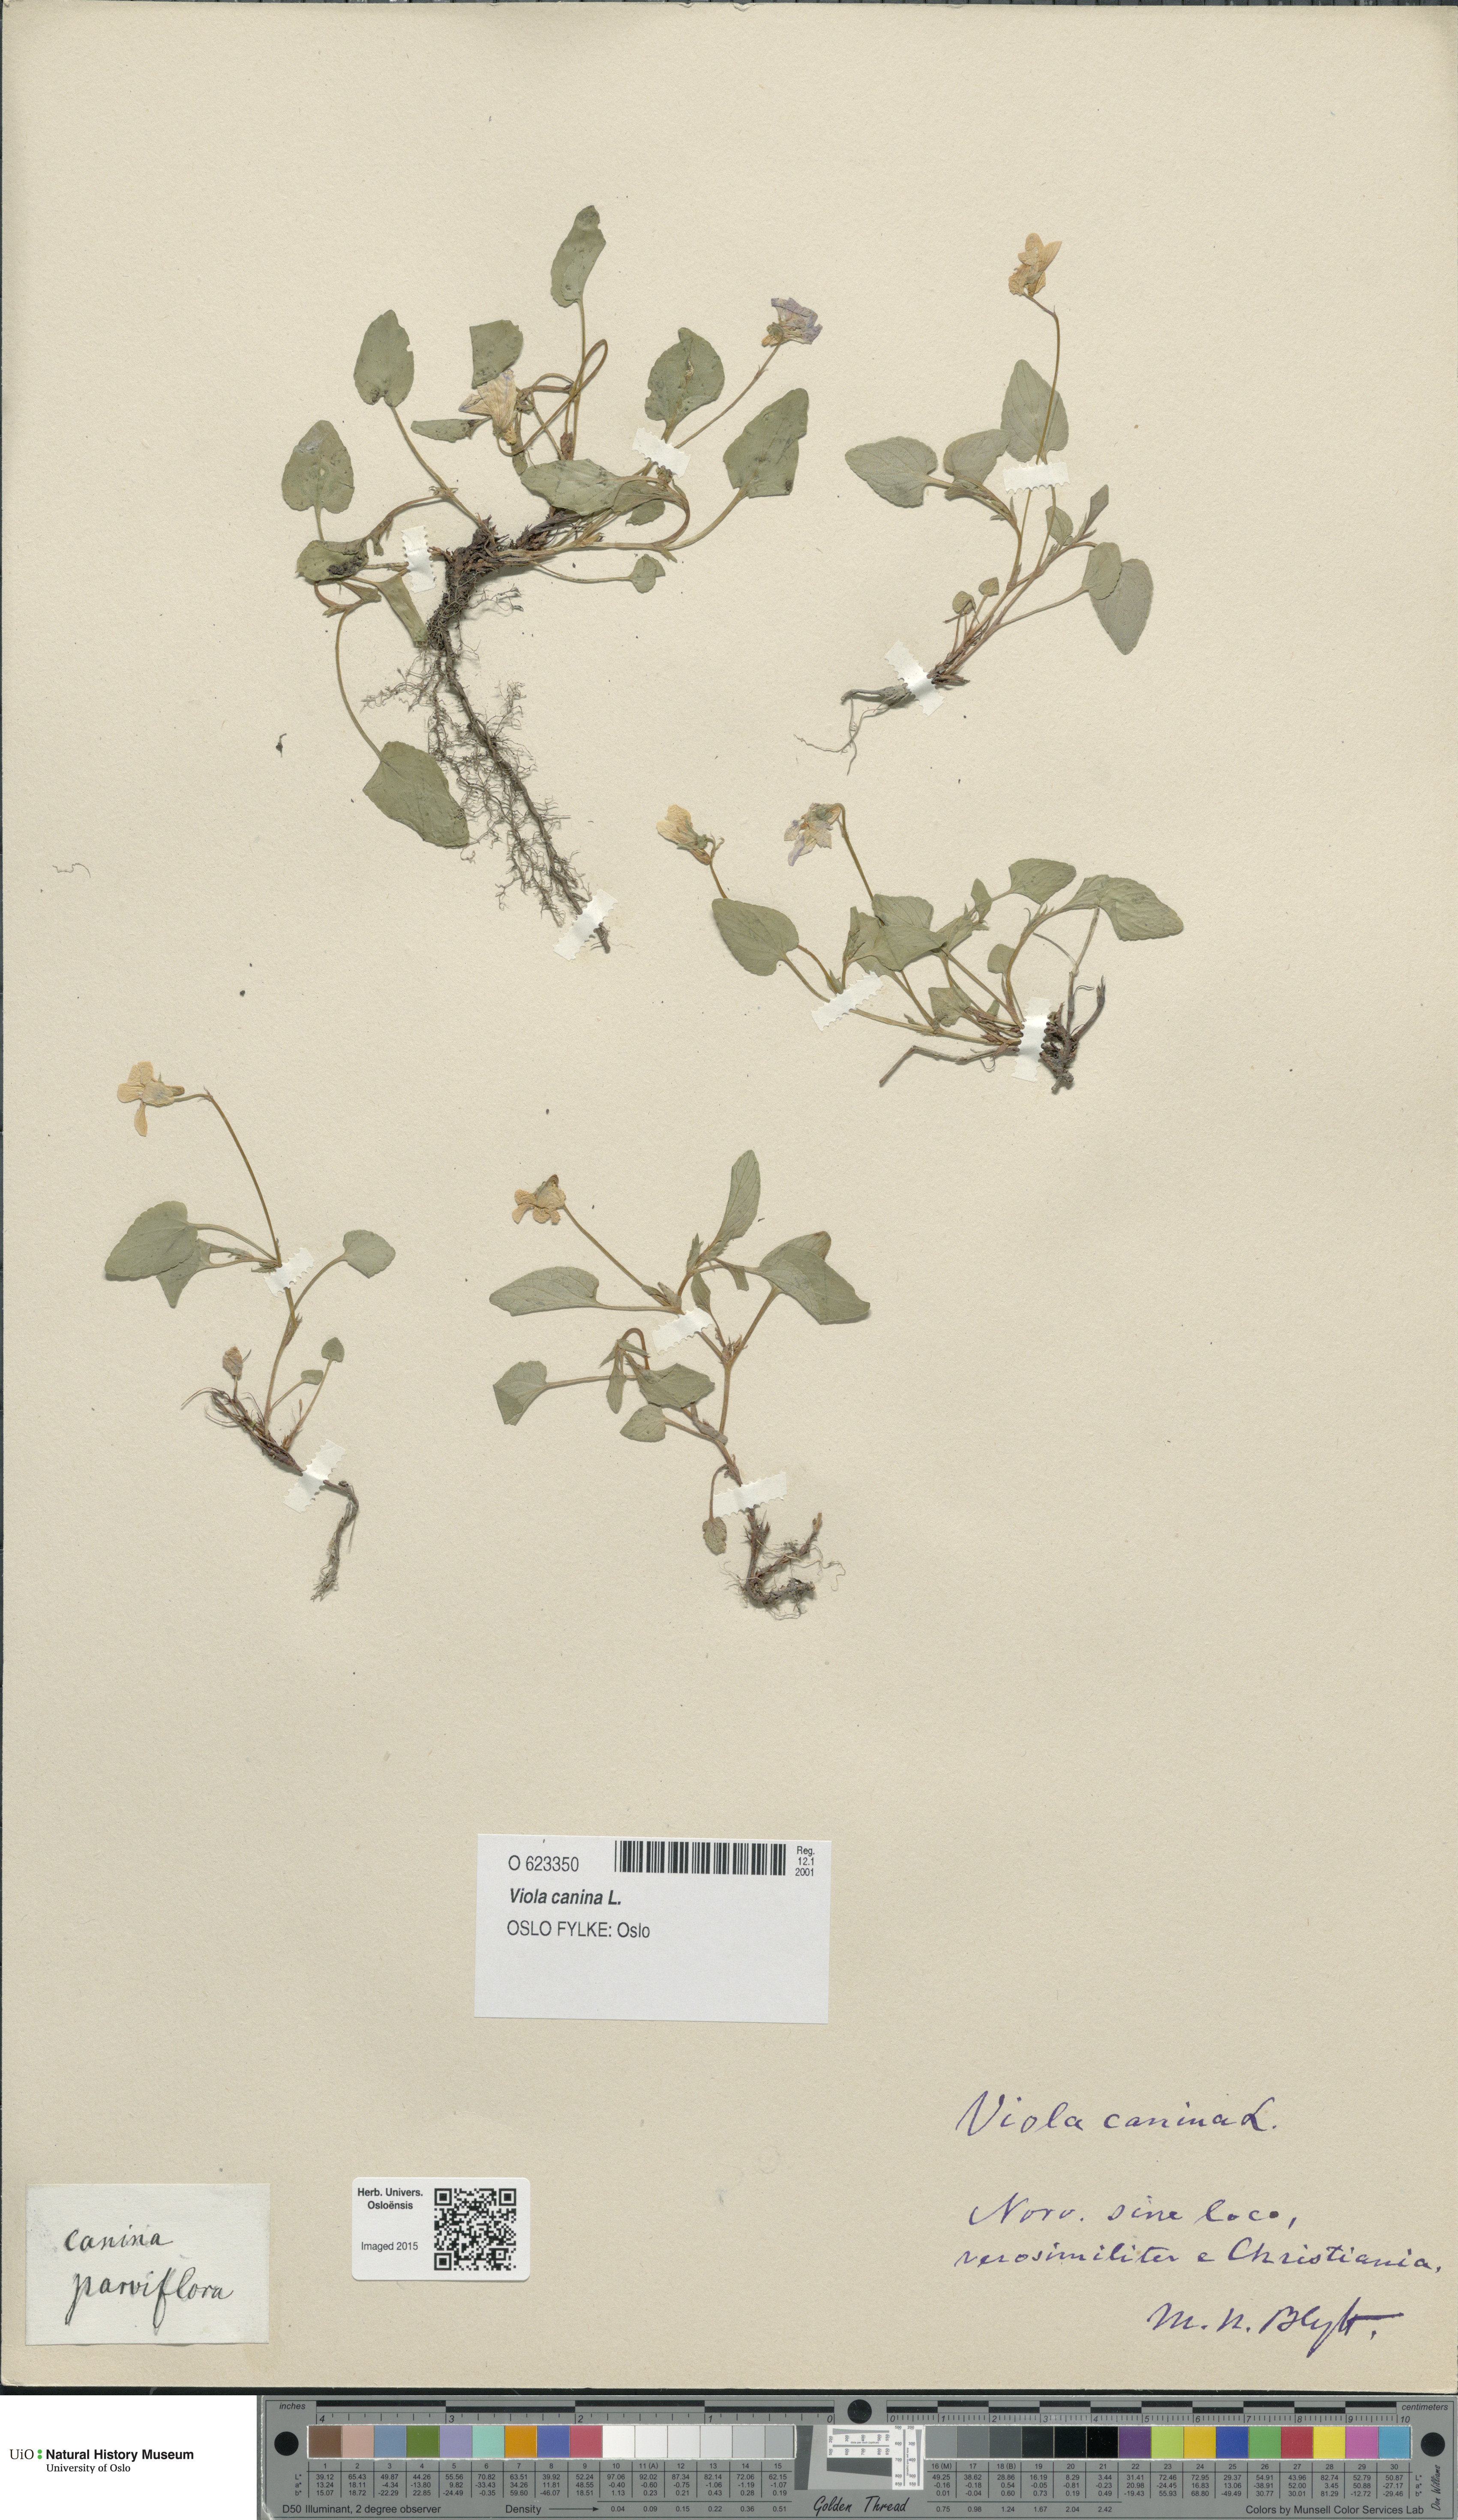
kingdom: Plantae
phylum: Tracheophyta
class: Magnoliopsida
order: Malpighiales
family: Violaceae
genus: Viola
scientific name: Viola canina
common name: Heath dog-violet
